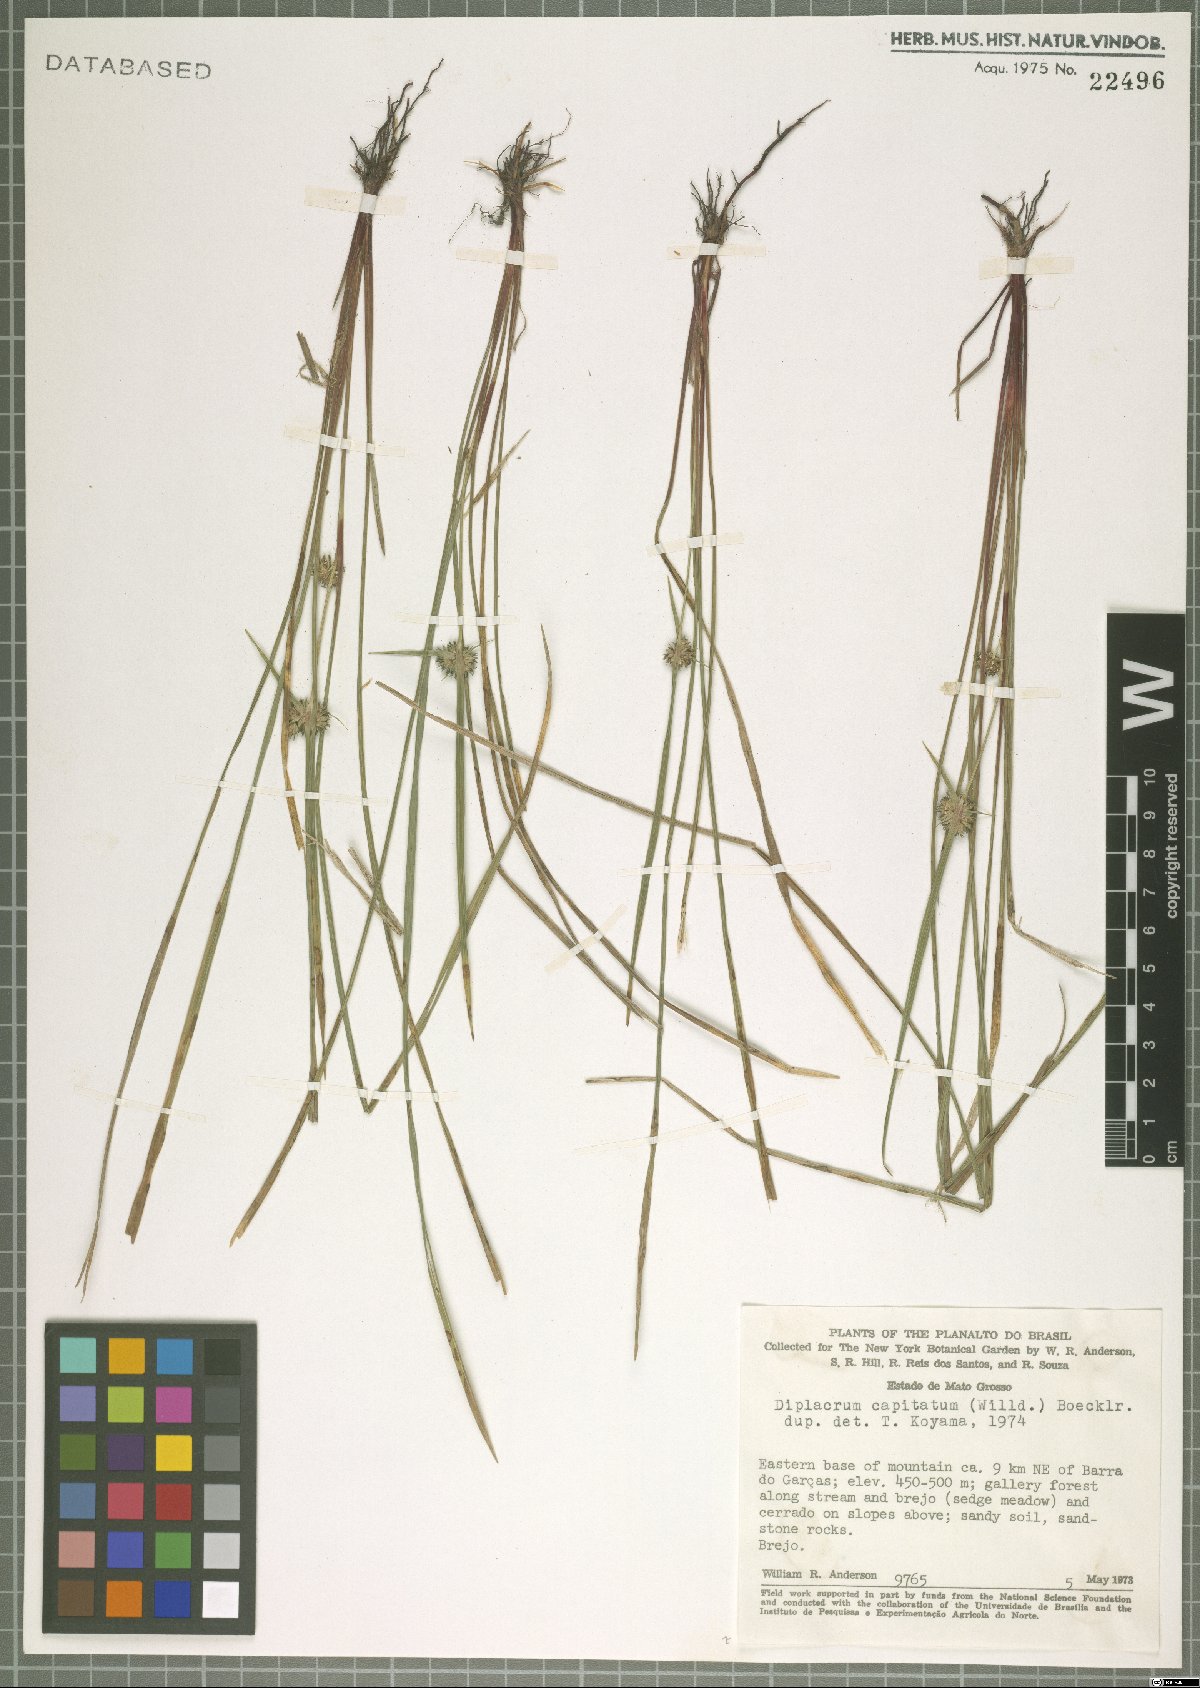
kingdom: Plantae
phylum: Tracheophyta
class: Liliopsida
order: Poales
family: Cyperaceae
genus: Diplacrum
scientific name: Diplacrum capitatum
